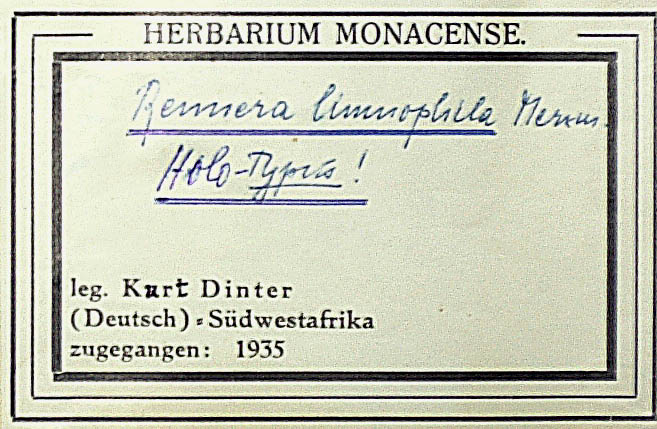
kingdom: Plantae
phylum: Tracheophyta
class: Magnoliopsida
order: Asterales
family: Asteraceae
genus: Anisopappus
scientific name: Anisopappus grangeoides
